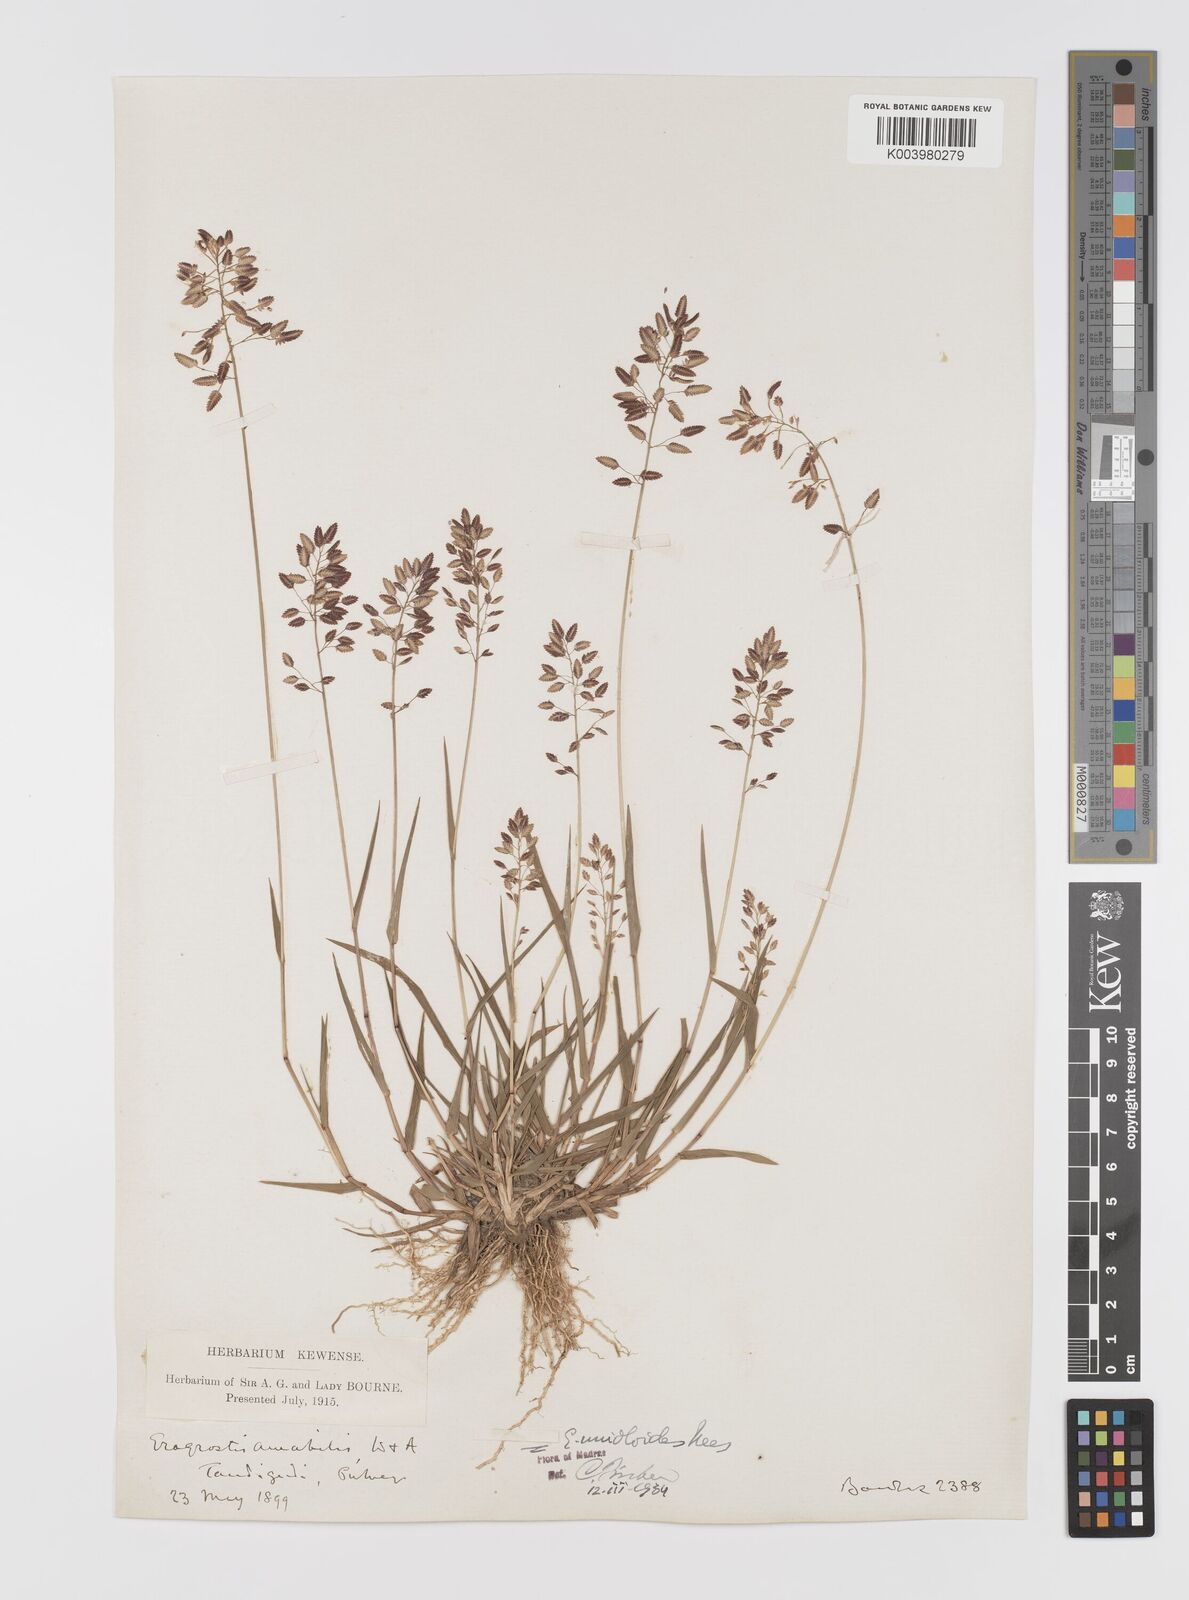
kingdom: Plantae
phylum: Tracheophyta
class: Liliopsida
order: Poales
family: Poaceae
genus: Eragrostis
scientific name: Eragrostis unioloides
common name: Chinese lovegrass
